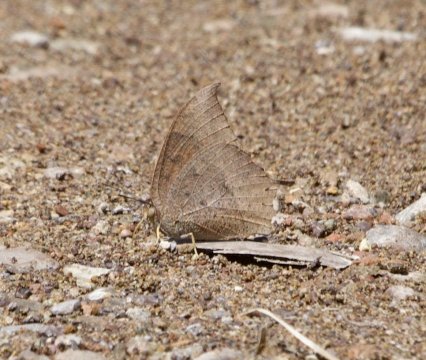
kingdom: Animalia
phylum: Arthropoda
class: Insecta
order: Lepidoptera
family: Nymphalidae
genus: Anaea
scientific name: Anaea aidea
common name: Tropical Leafwing
